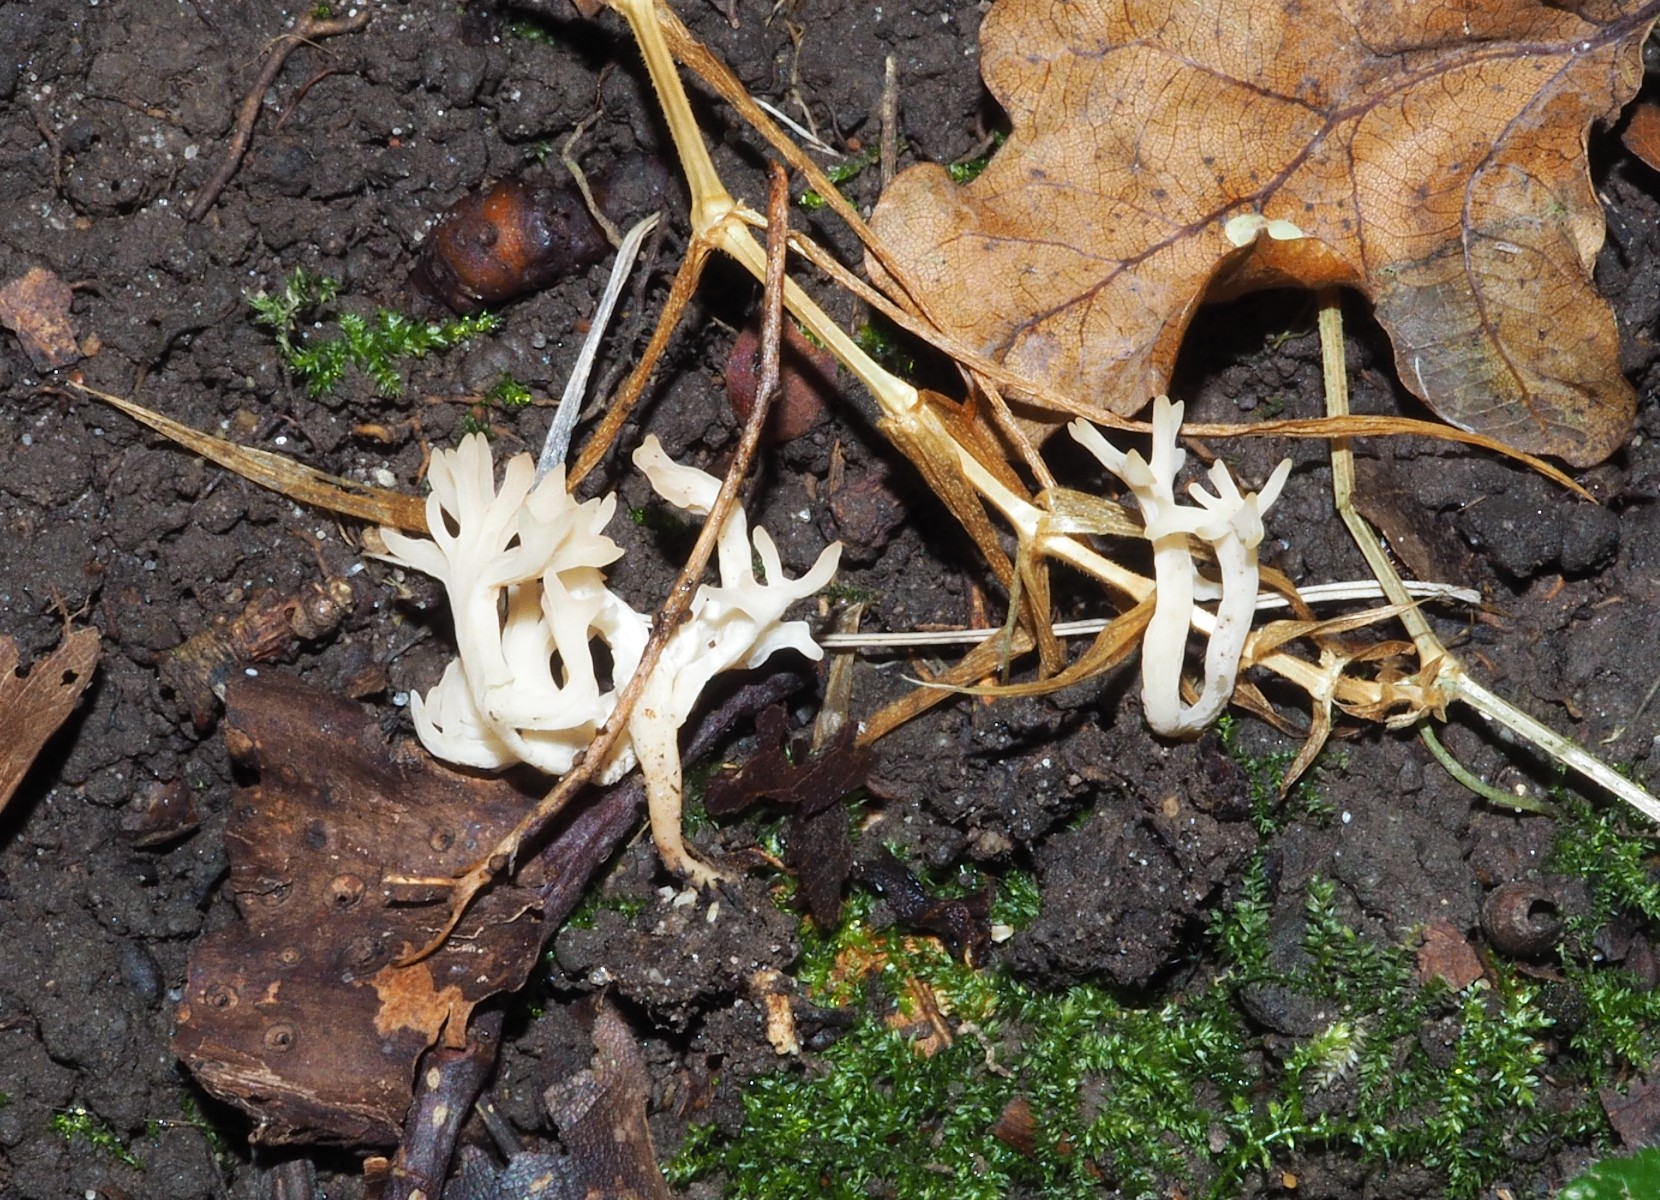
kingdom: Fungi
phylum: Basidiomycota
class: Agaricomycetes
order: Agaricales
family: Clavariaceae
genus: Clavulinopsis
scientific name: Clavulinopsis rufipes
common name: småsporet køllesvamp
